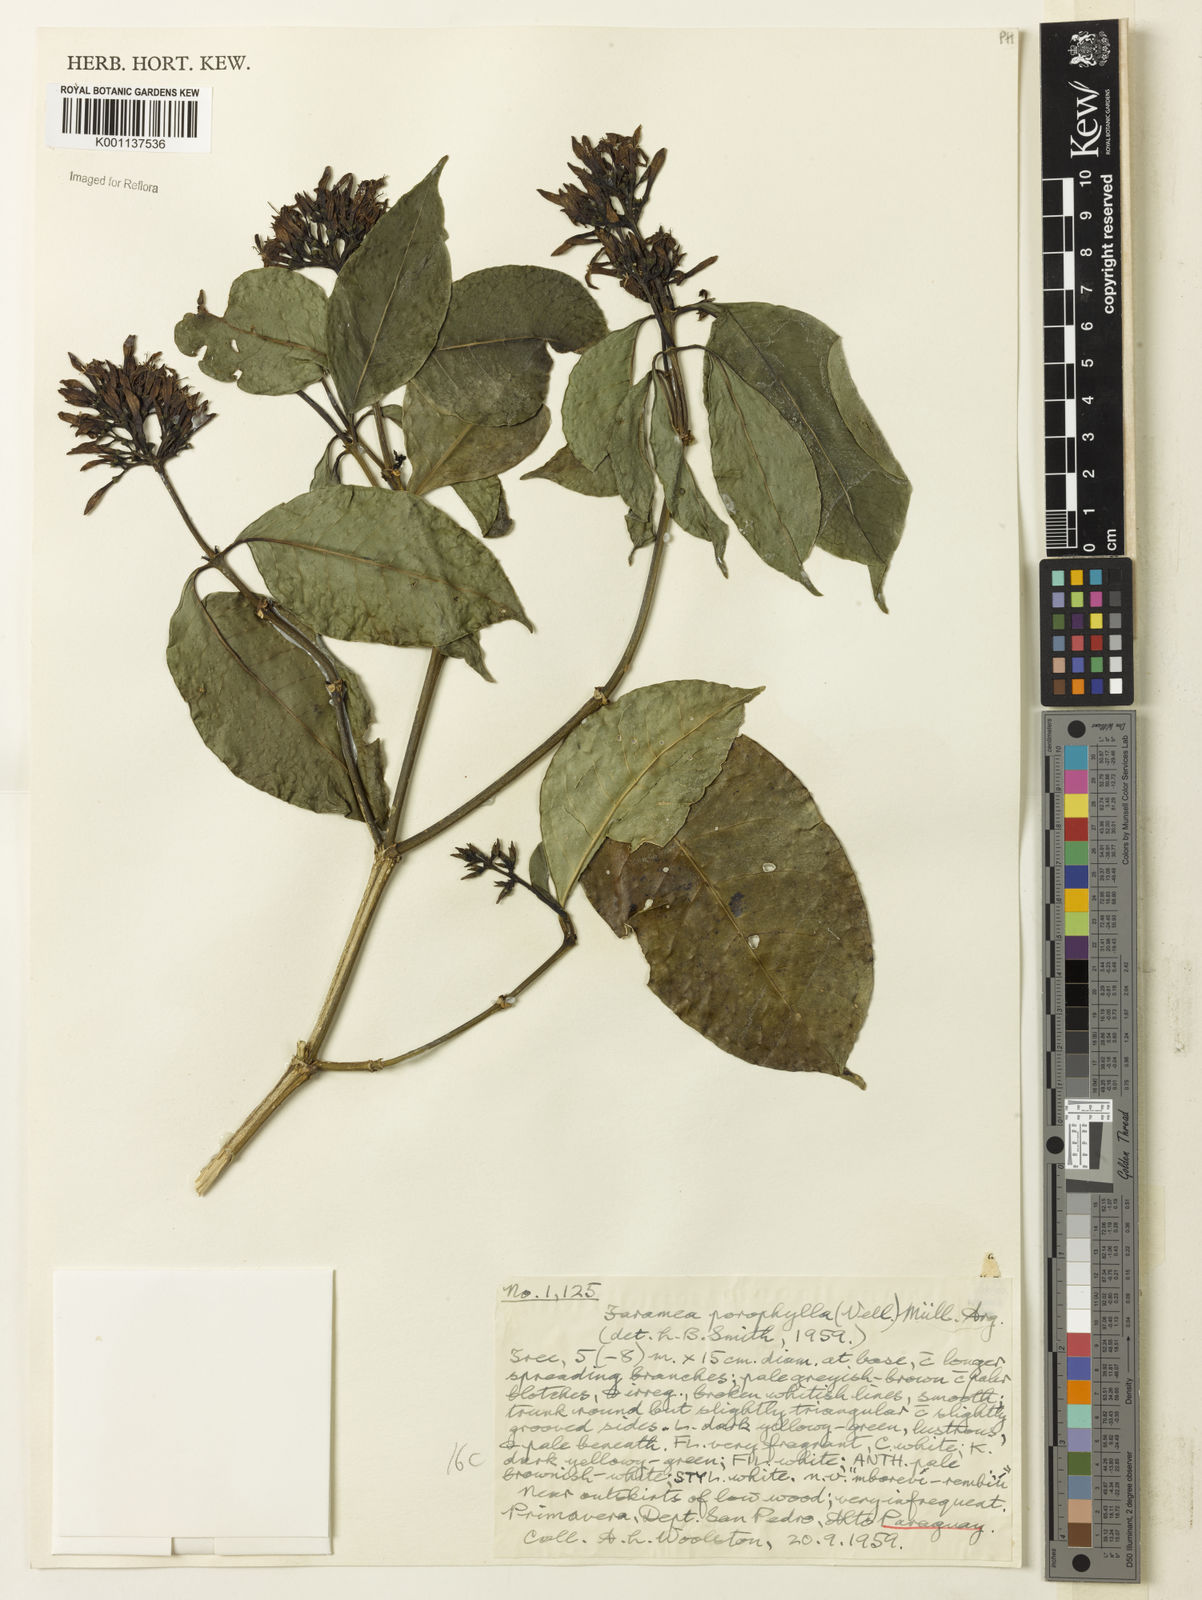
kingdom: Plantae
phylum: Tracheophyta
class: Magnoliopsida
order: Gentianales
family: Rubiaceae
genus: Coussarea
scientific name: Coussarea
